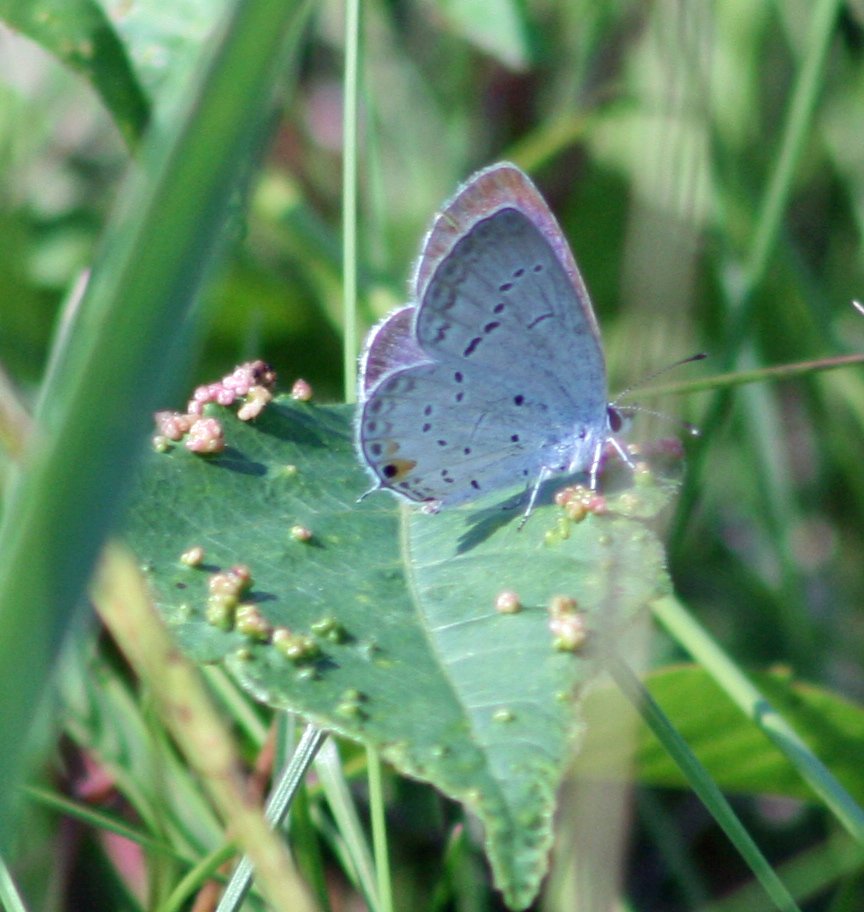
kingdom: Animalia
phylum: Arthropoda
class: Insecta
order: Lepidoptera
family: Lycaenidae
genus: Elkalyce
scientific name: Elkalyce comyntas
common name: Eastern Tailed-Blue
